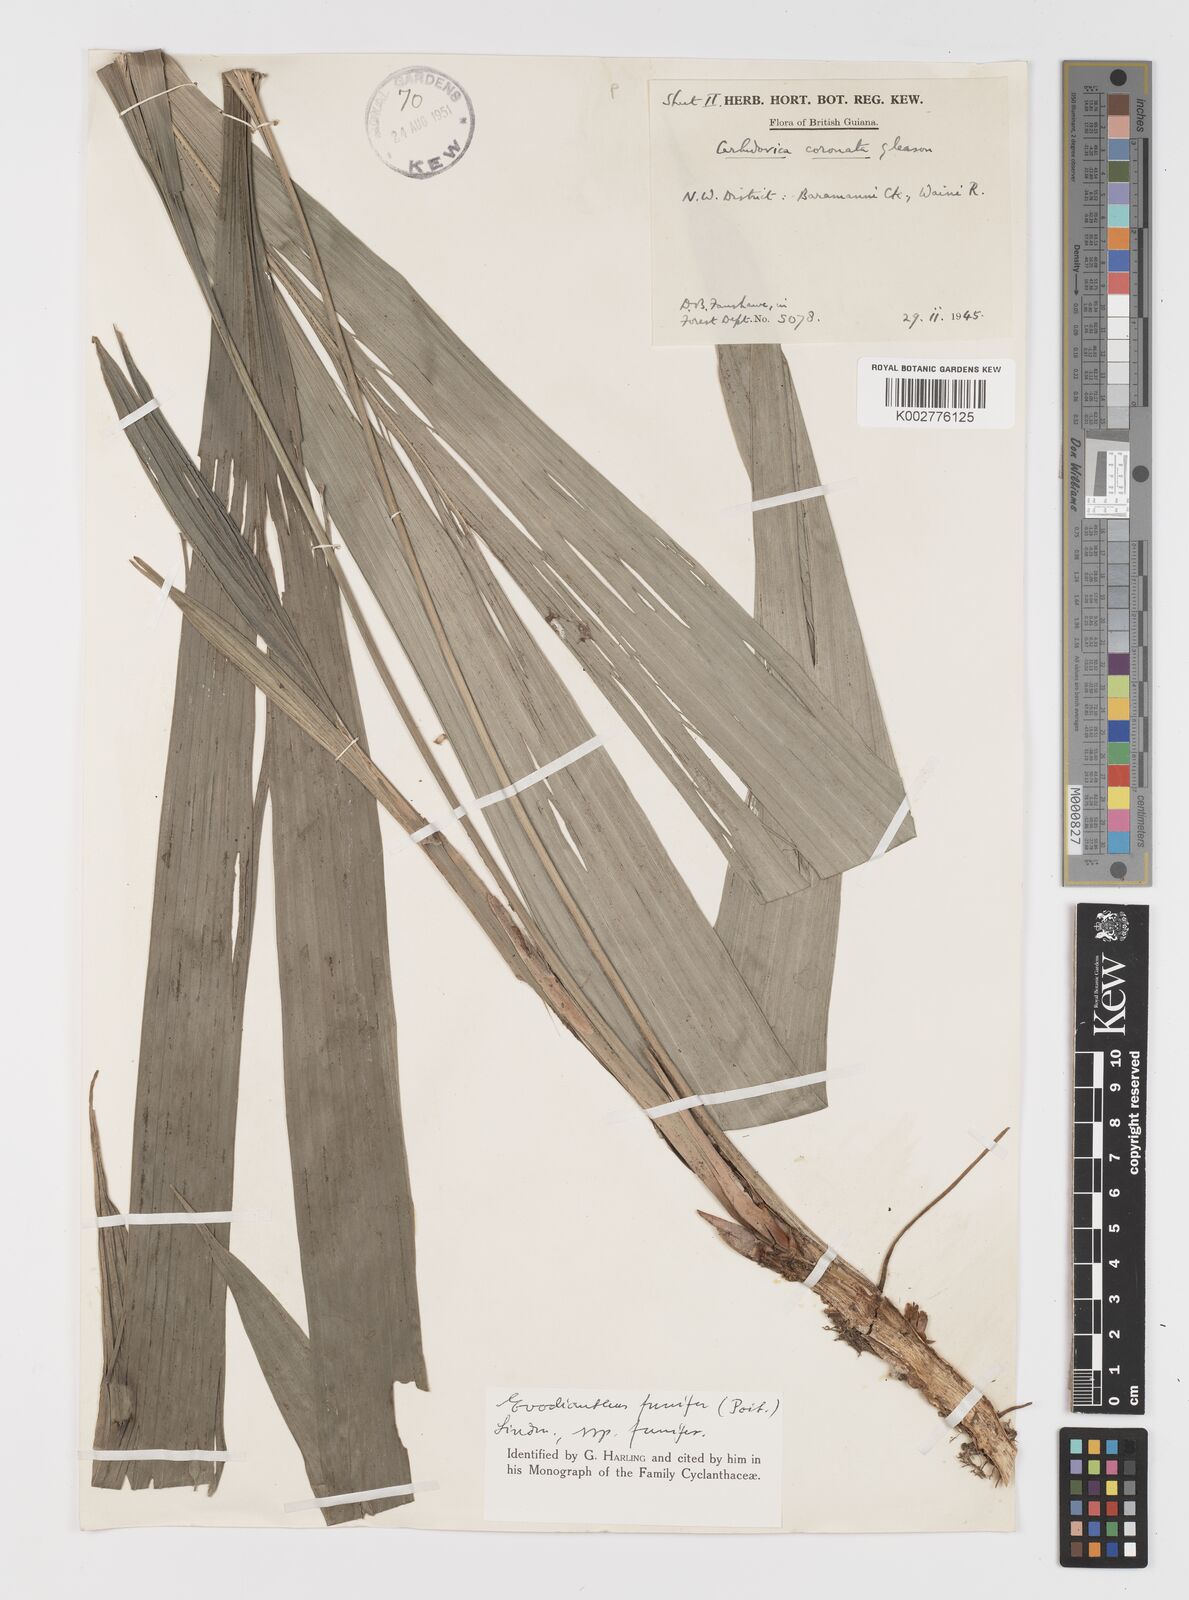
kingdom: Plantae
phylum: Tracheophyta
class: Liliopsida
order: Pandanales
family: Cyclanthaceae
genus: Evodianthus
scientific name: Evodianthus funifer
